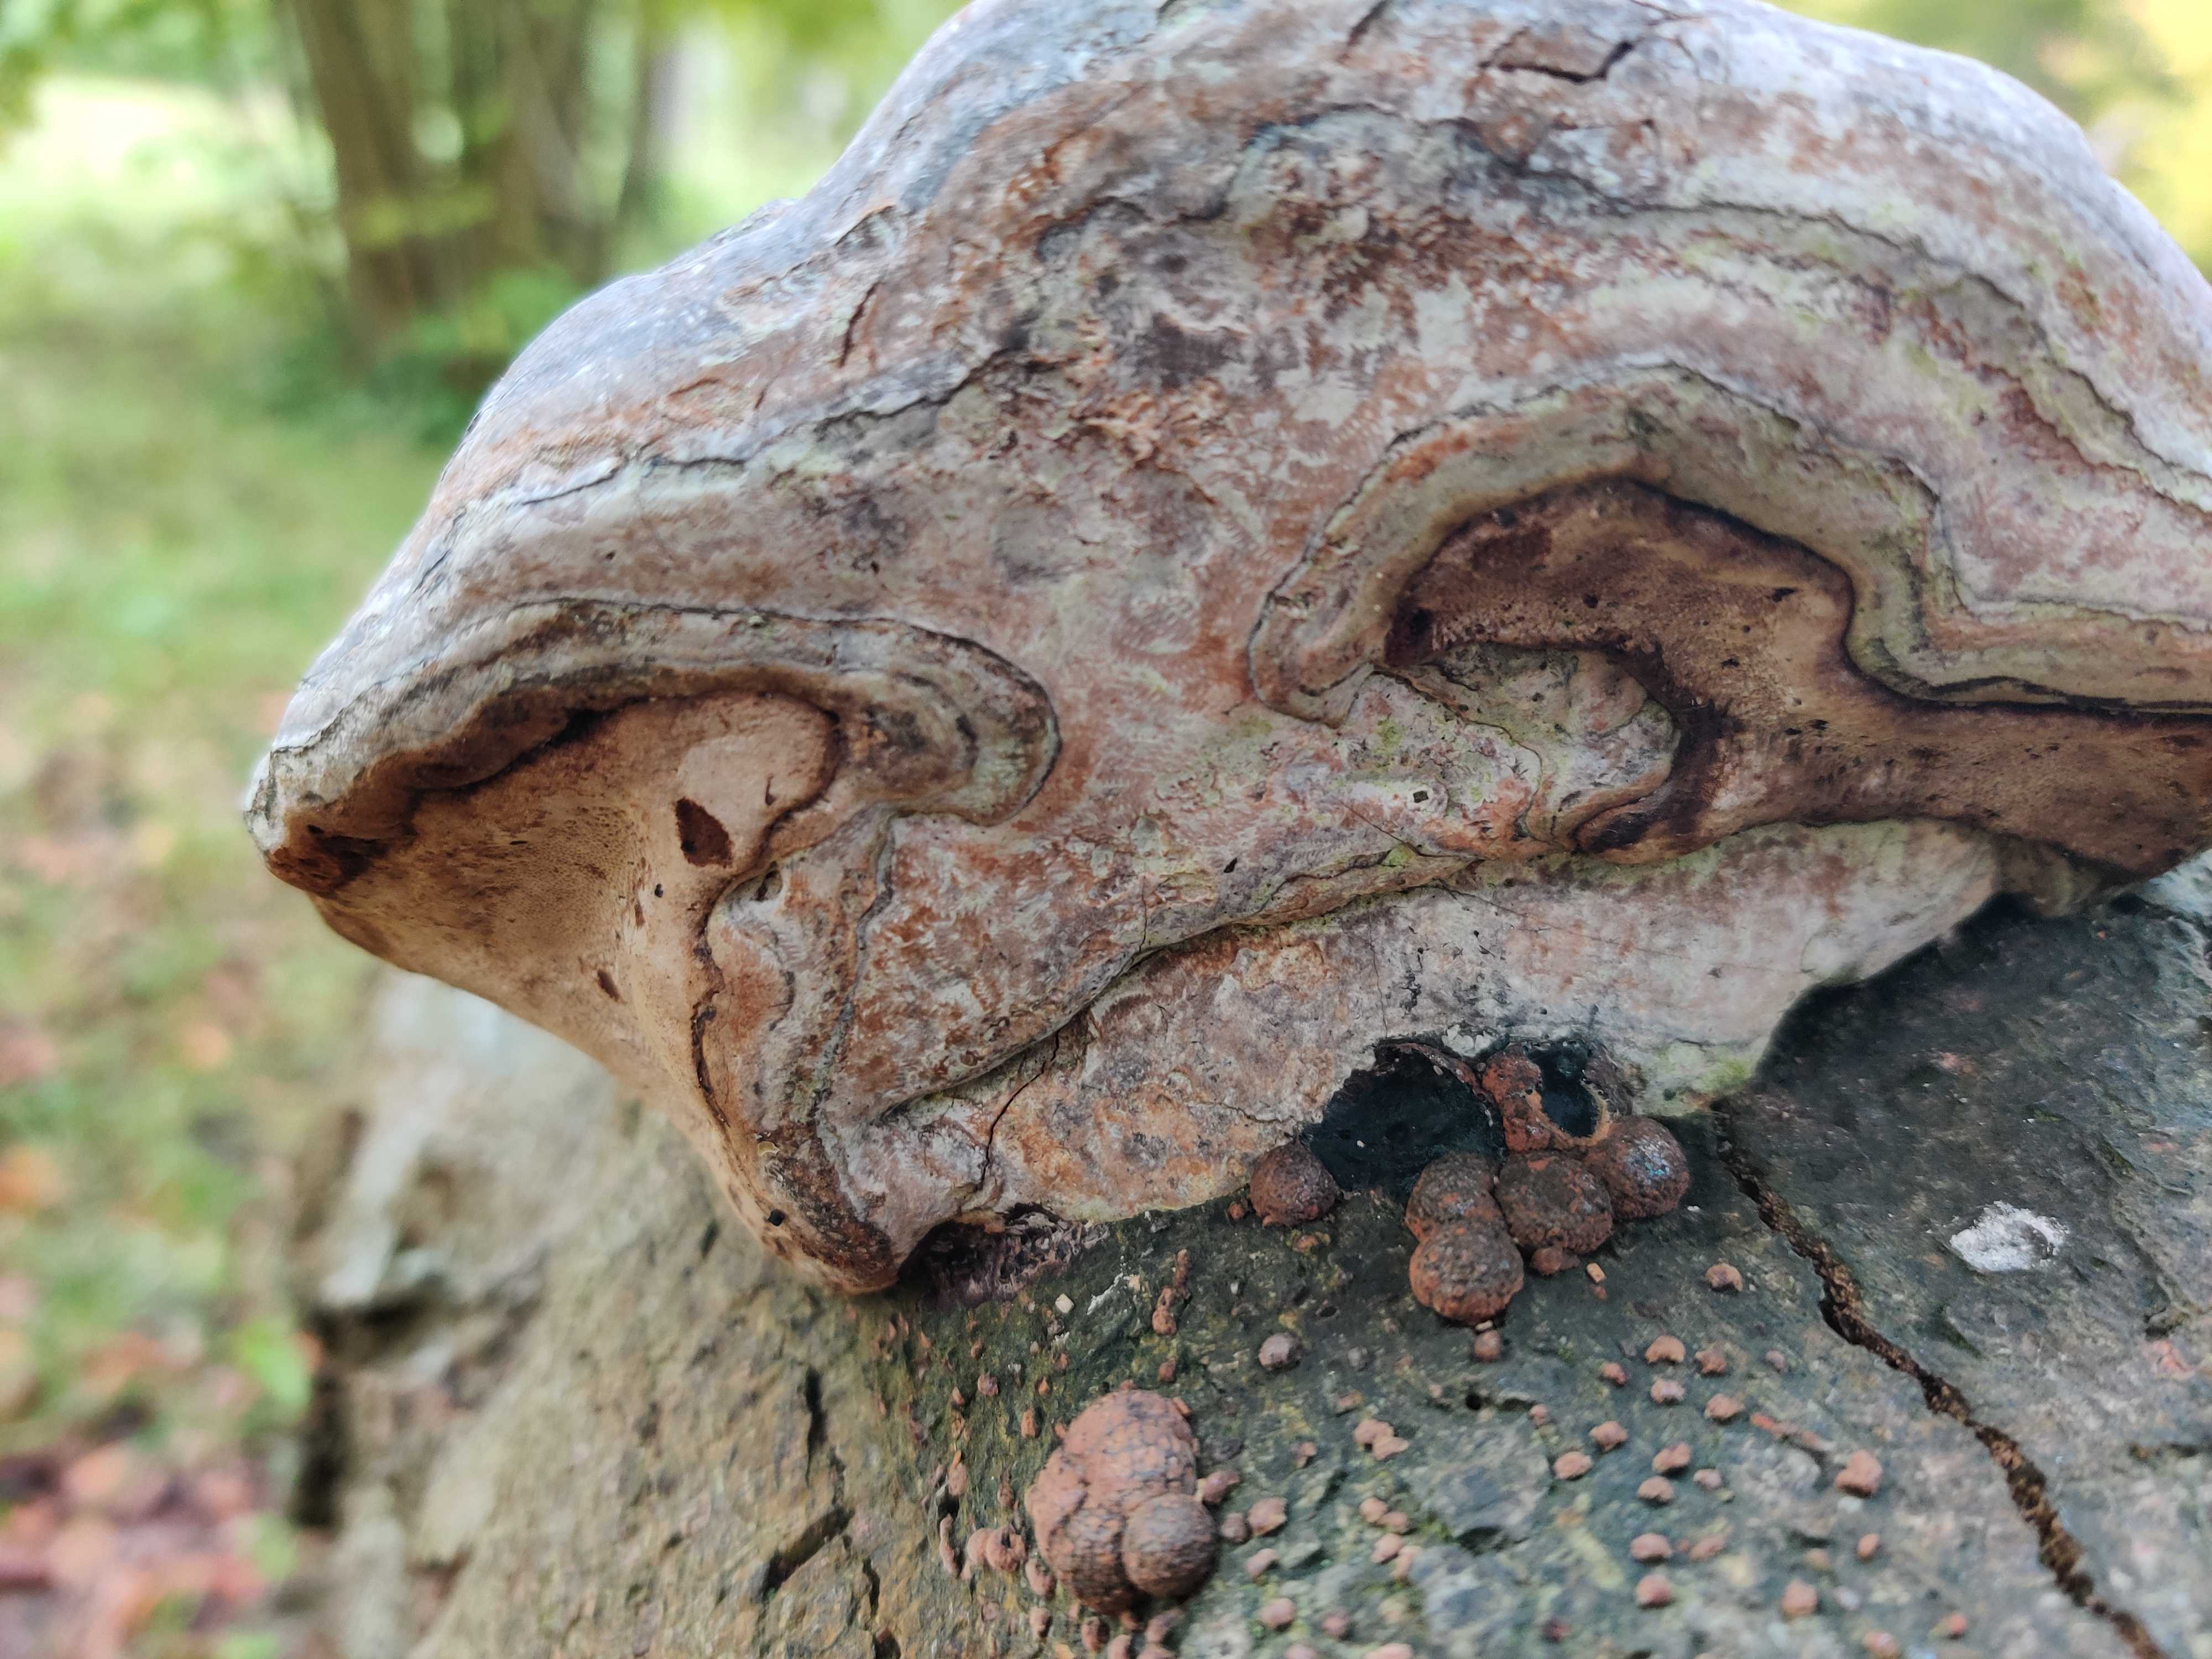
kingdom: Fungi
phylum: Basidiomycota
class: Agaricomycetes
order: Polyporales
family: Polyporaceae
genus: Fomes
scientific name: Fomes fomentarius
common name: tøndersvamp
